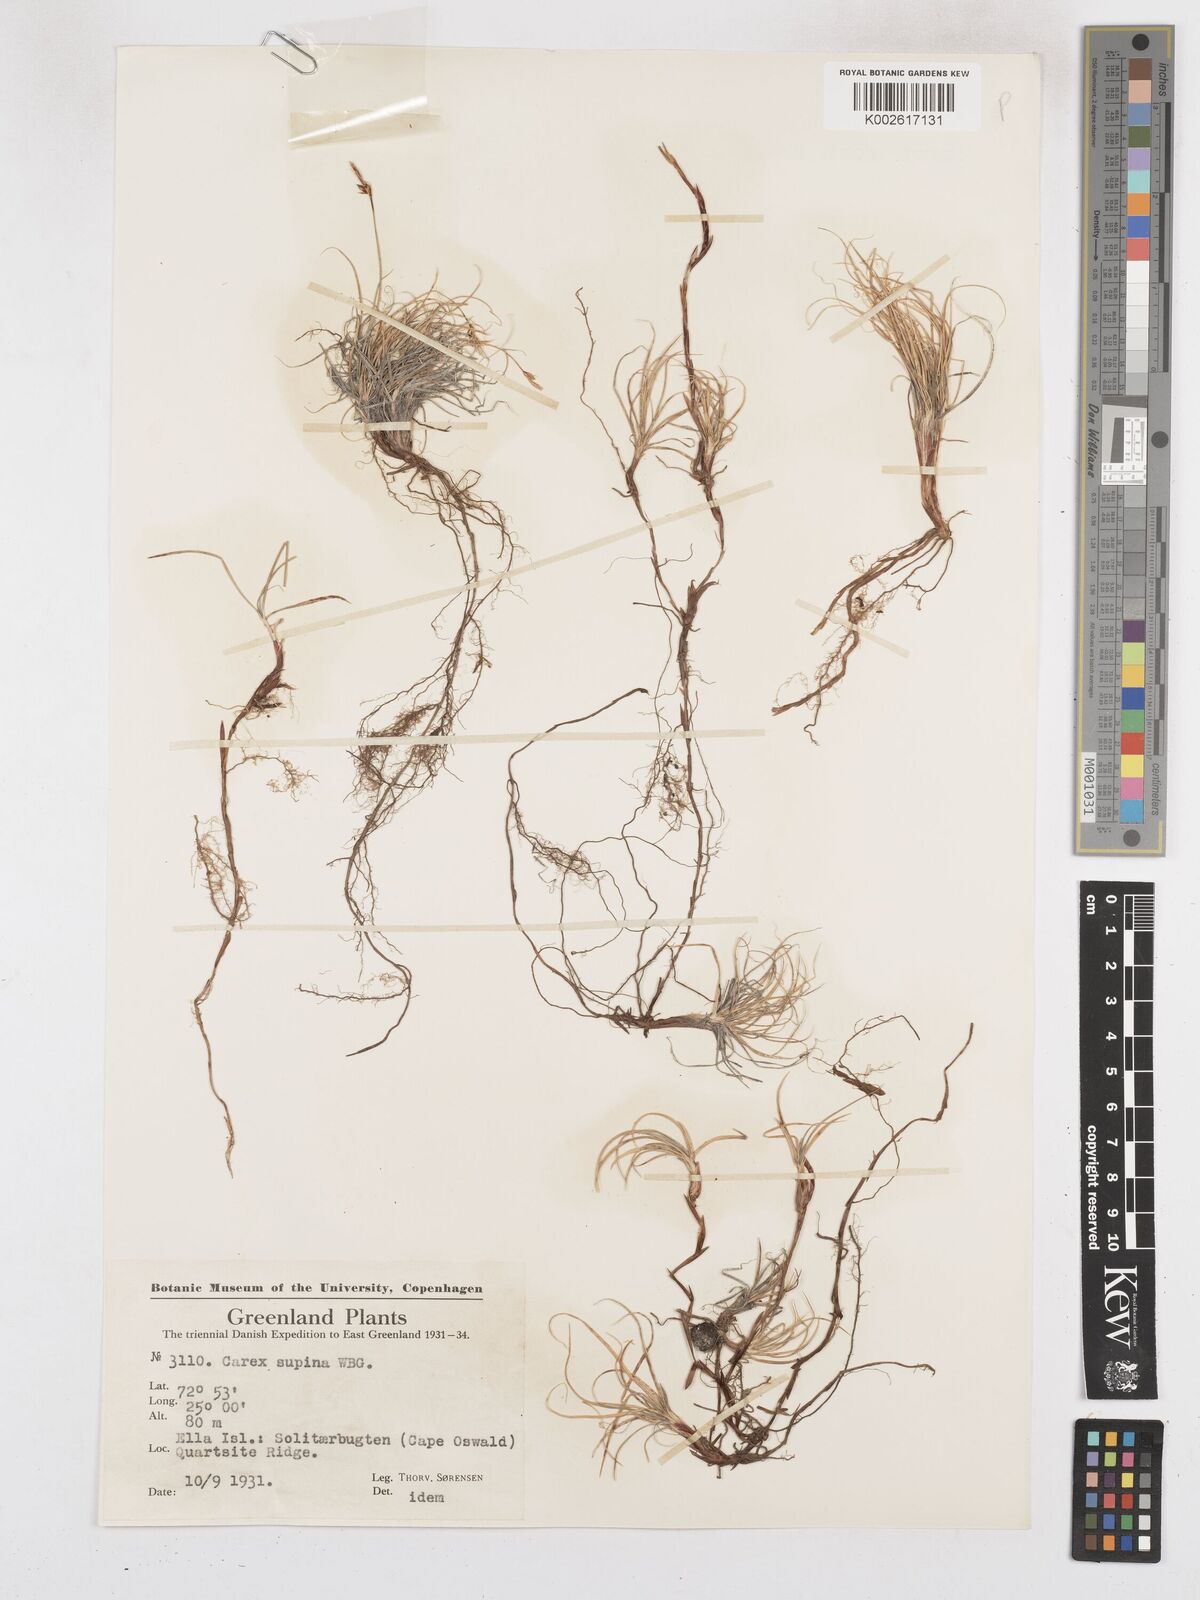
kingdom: Plantae
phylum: Tracheophyta
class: Liliopsida
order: Poales
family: Cyperaceae
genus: Carex
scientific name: Carex supina
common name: Lying-back sedge
